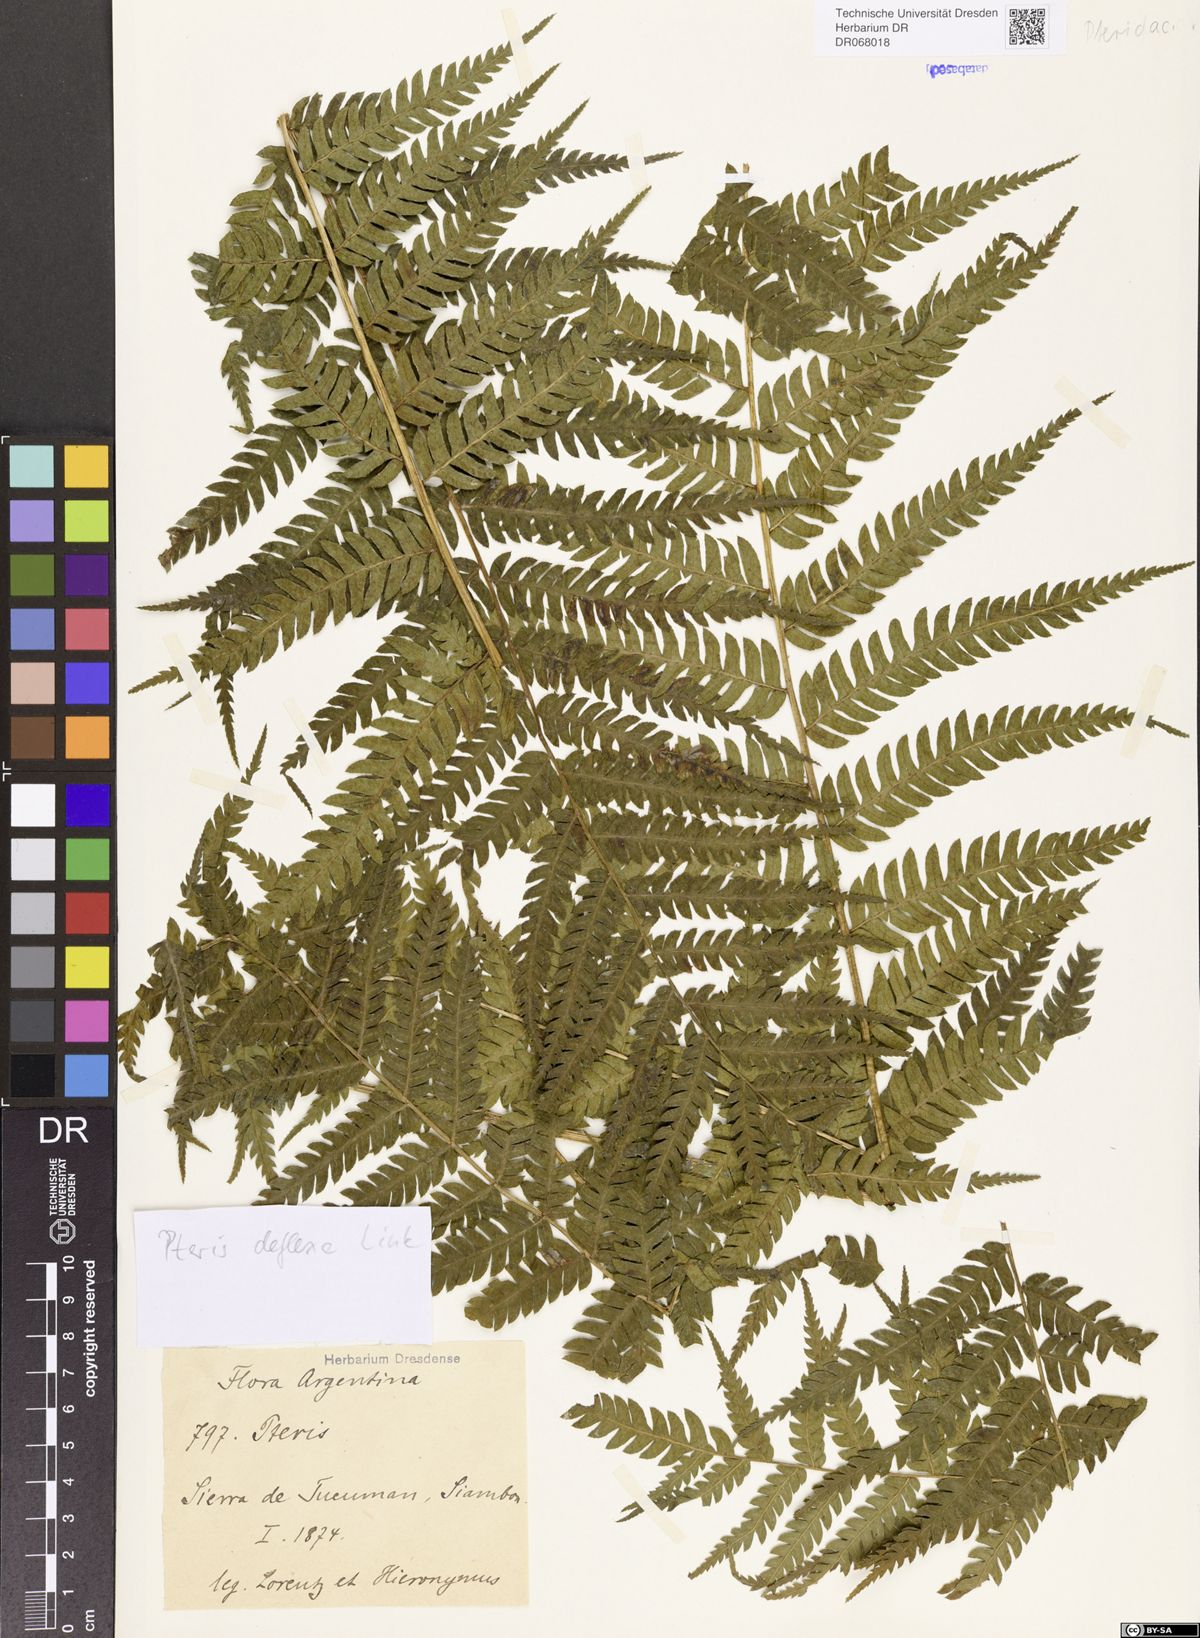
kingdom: Plantae
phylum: Tracheophyta
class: Polypodiopsida
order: Polypodiales
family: Pteridaceae
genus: Pteris
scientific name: Pteris deflexa
